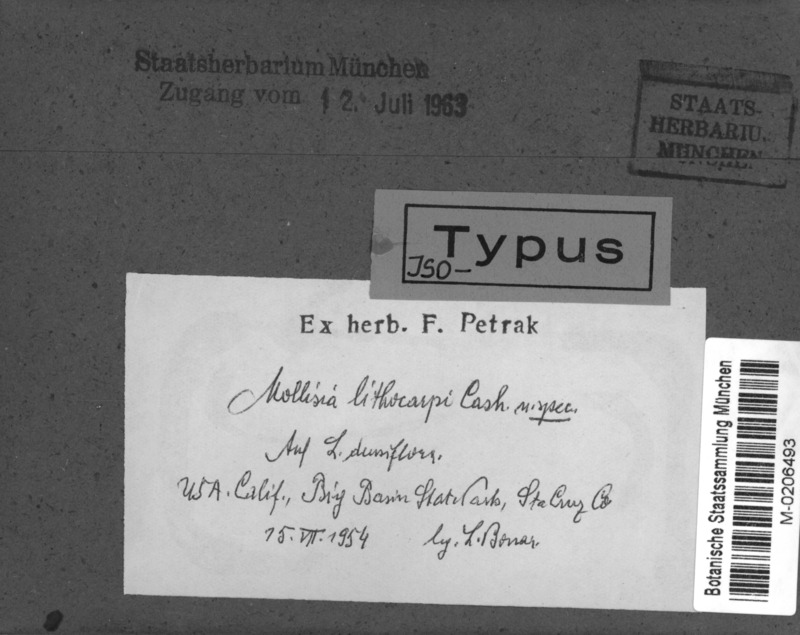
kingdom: Fungi
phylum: Ascomycota
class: Leotiomycetes
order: Helotiales
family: Mollisiaceae
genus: Mollisia
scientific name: Mollisia lithocarpi
